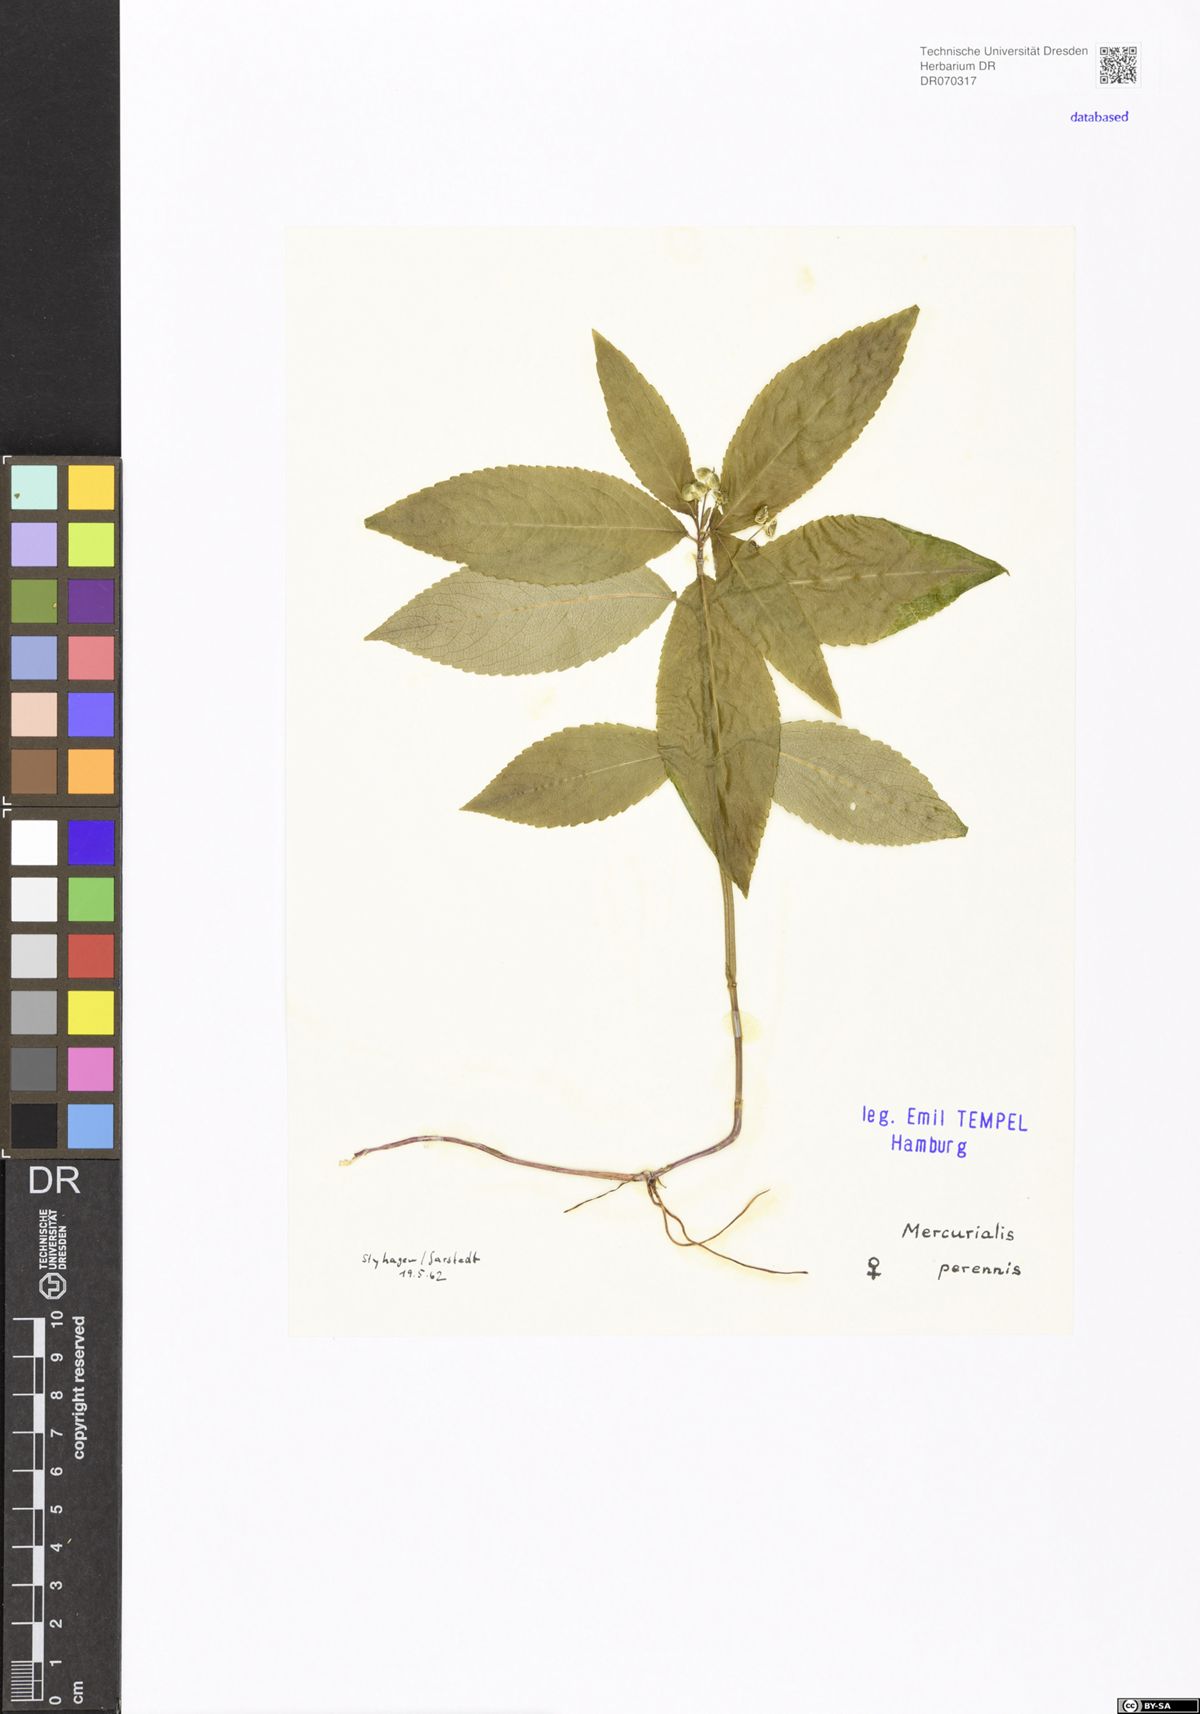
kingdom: Plantae
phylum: Tracheophyta
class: Magnoliopsida
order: Malpighiales
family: Euphorbiaceae
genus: Mercurialis
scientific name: Mercurialis perennis
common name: Dog mercury
